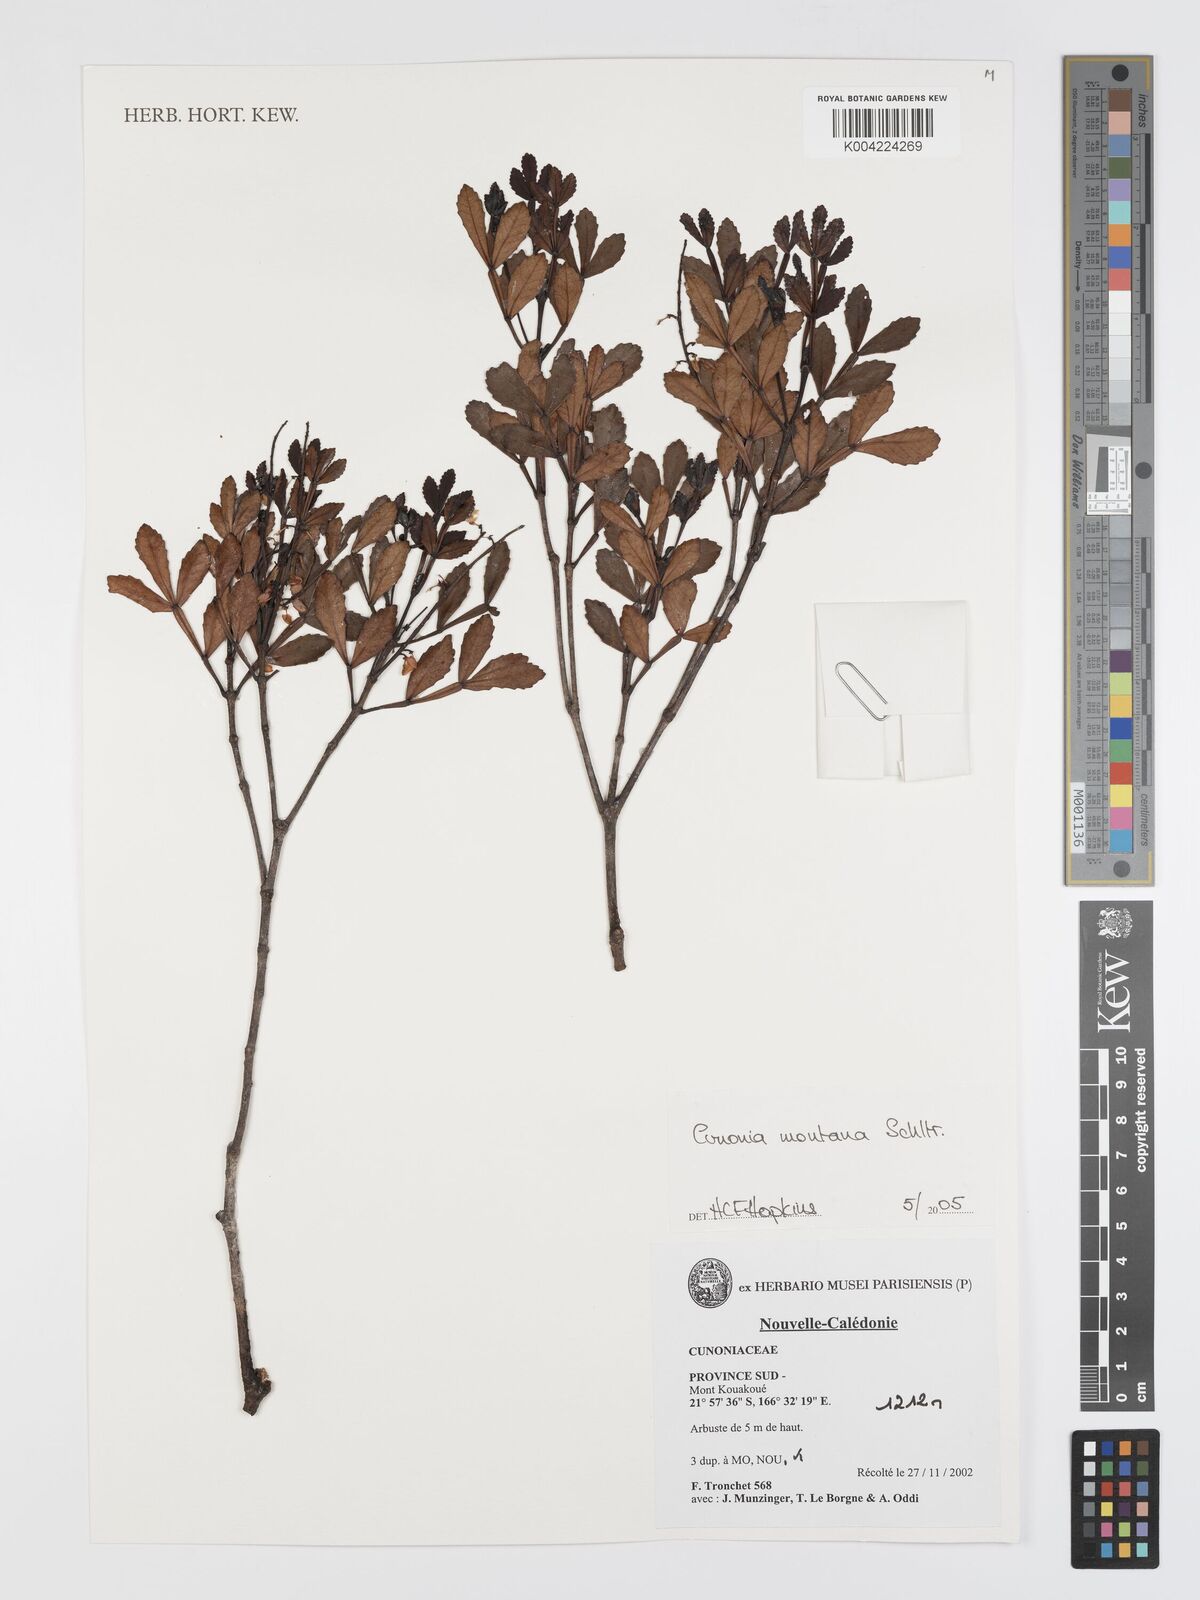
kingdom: Plantae
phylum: Tracheophyta
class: Magnoliopsida
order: Oxalidales
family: Cunoniaceae
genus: Cunonia
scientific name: Cunonia montana
